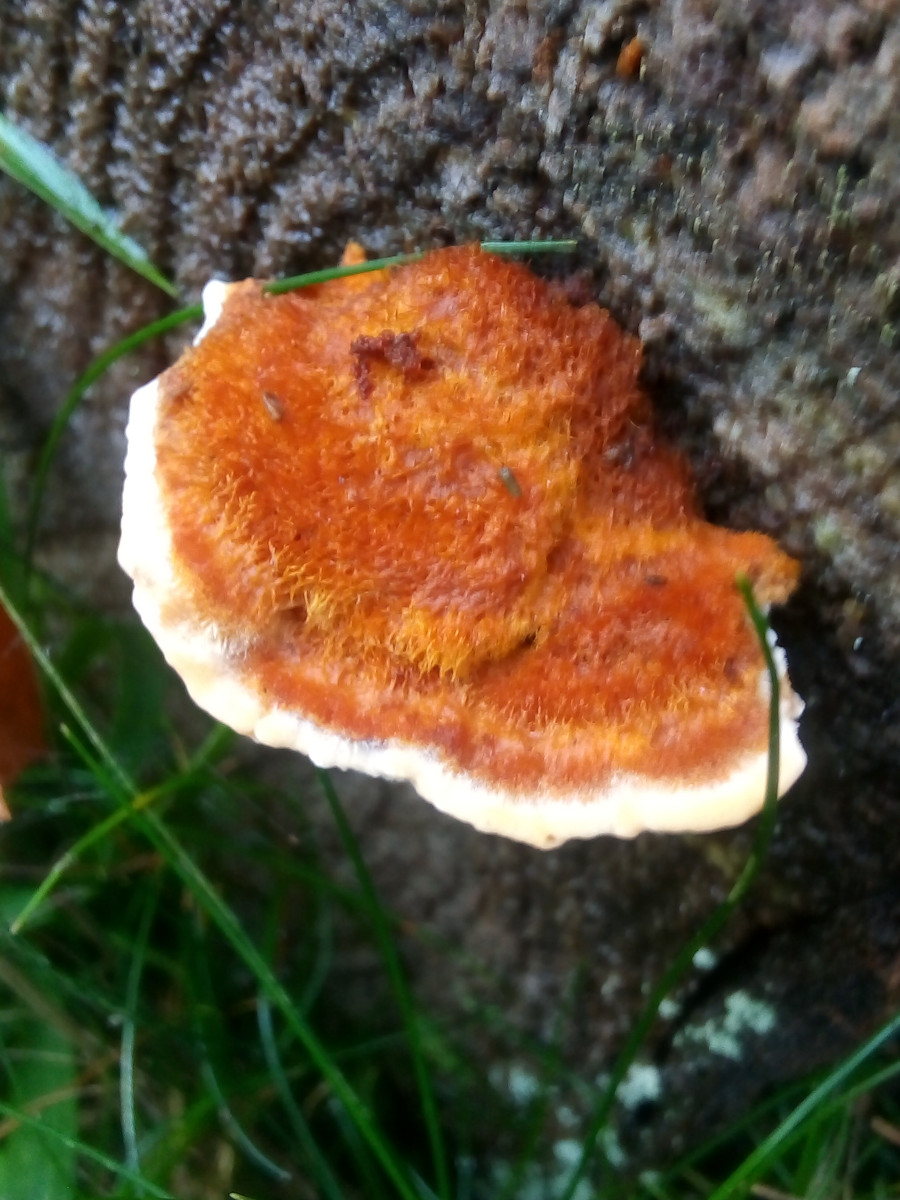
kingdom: Fungi
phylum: Basidiomycota
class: Agaricomycetes
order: Polyporales
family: Pycnoporellaceae
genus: Pycnoporellus
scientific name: Pycnoporellus fulgens
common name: flammeporesvamp
